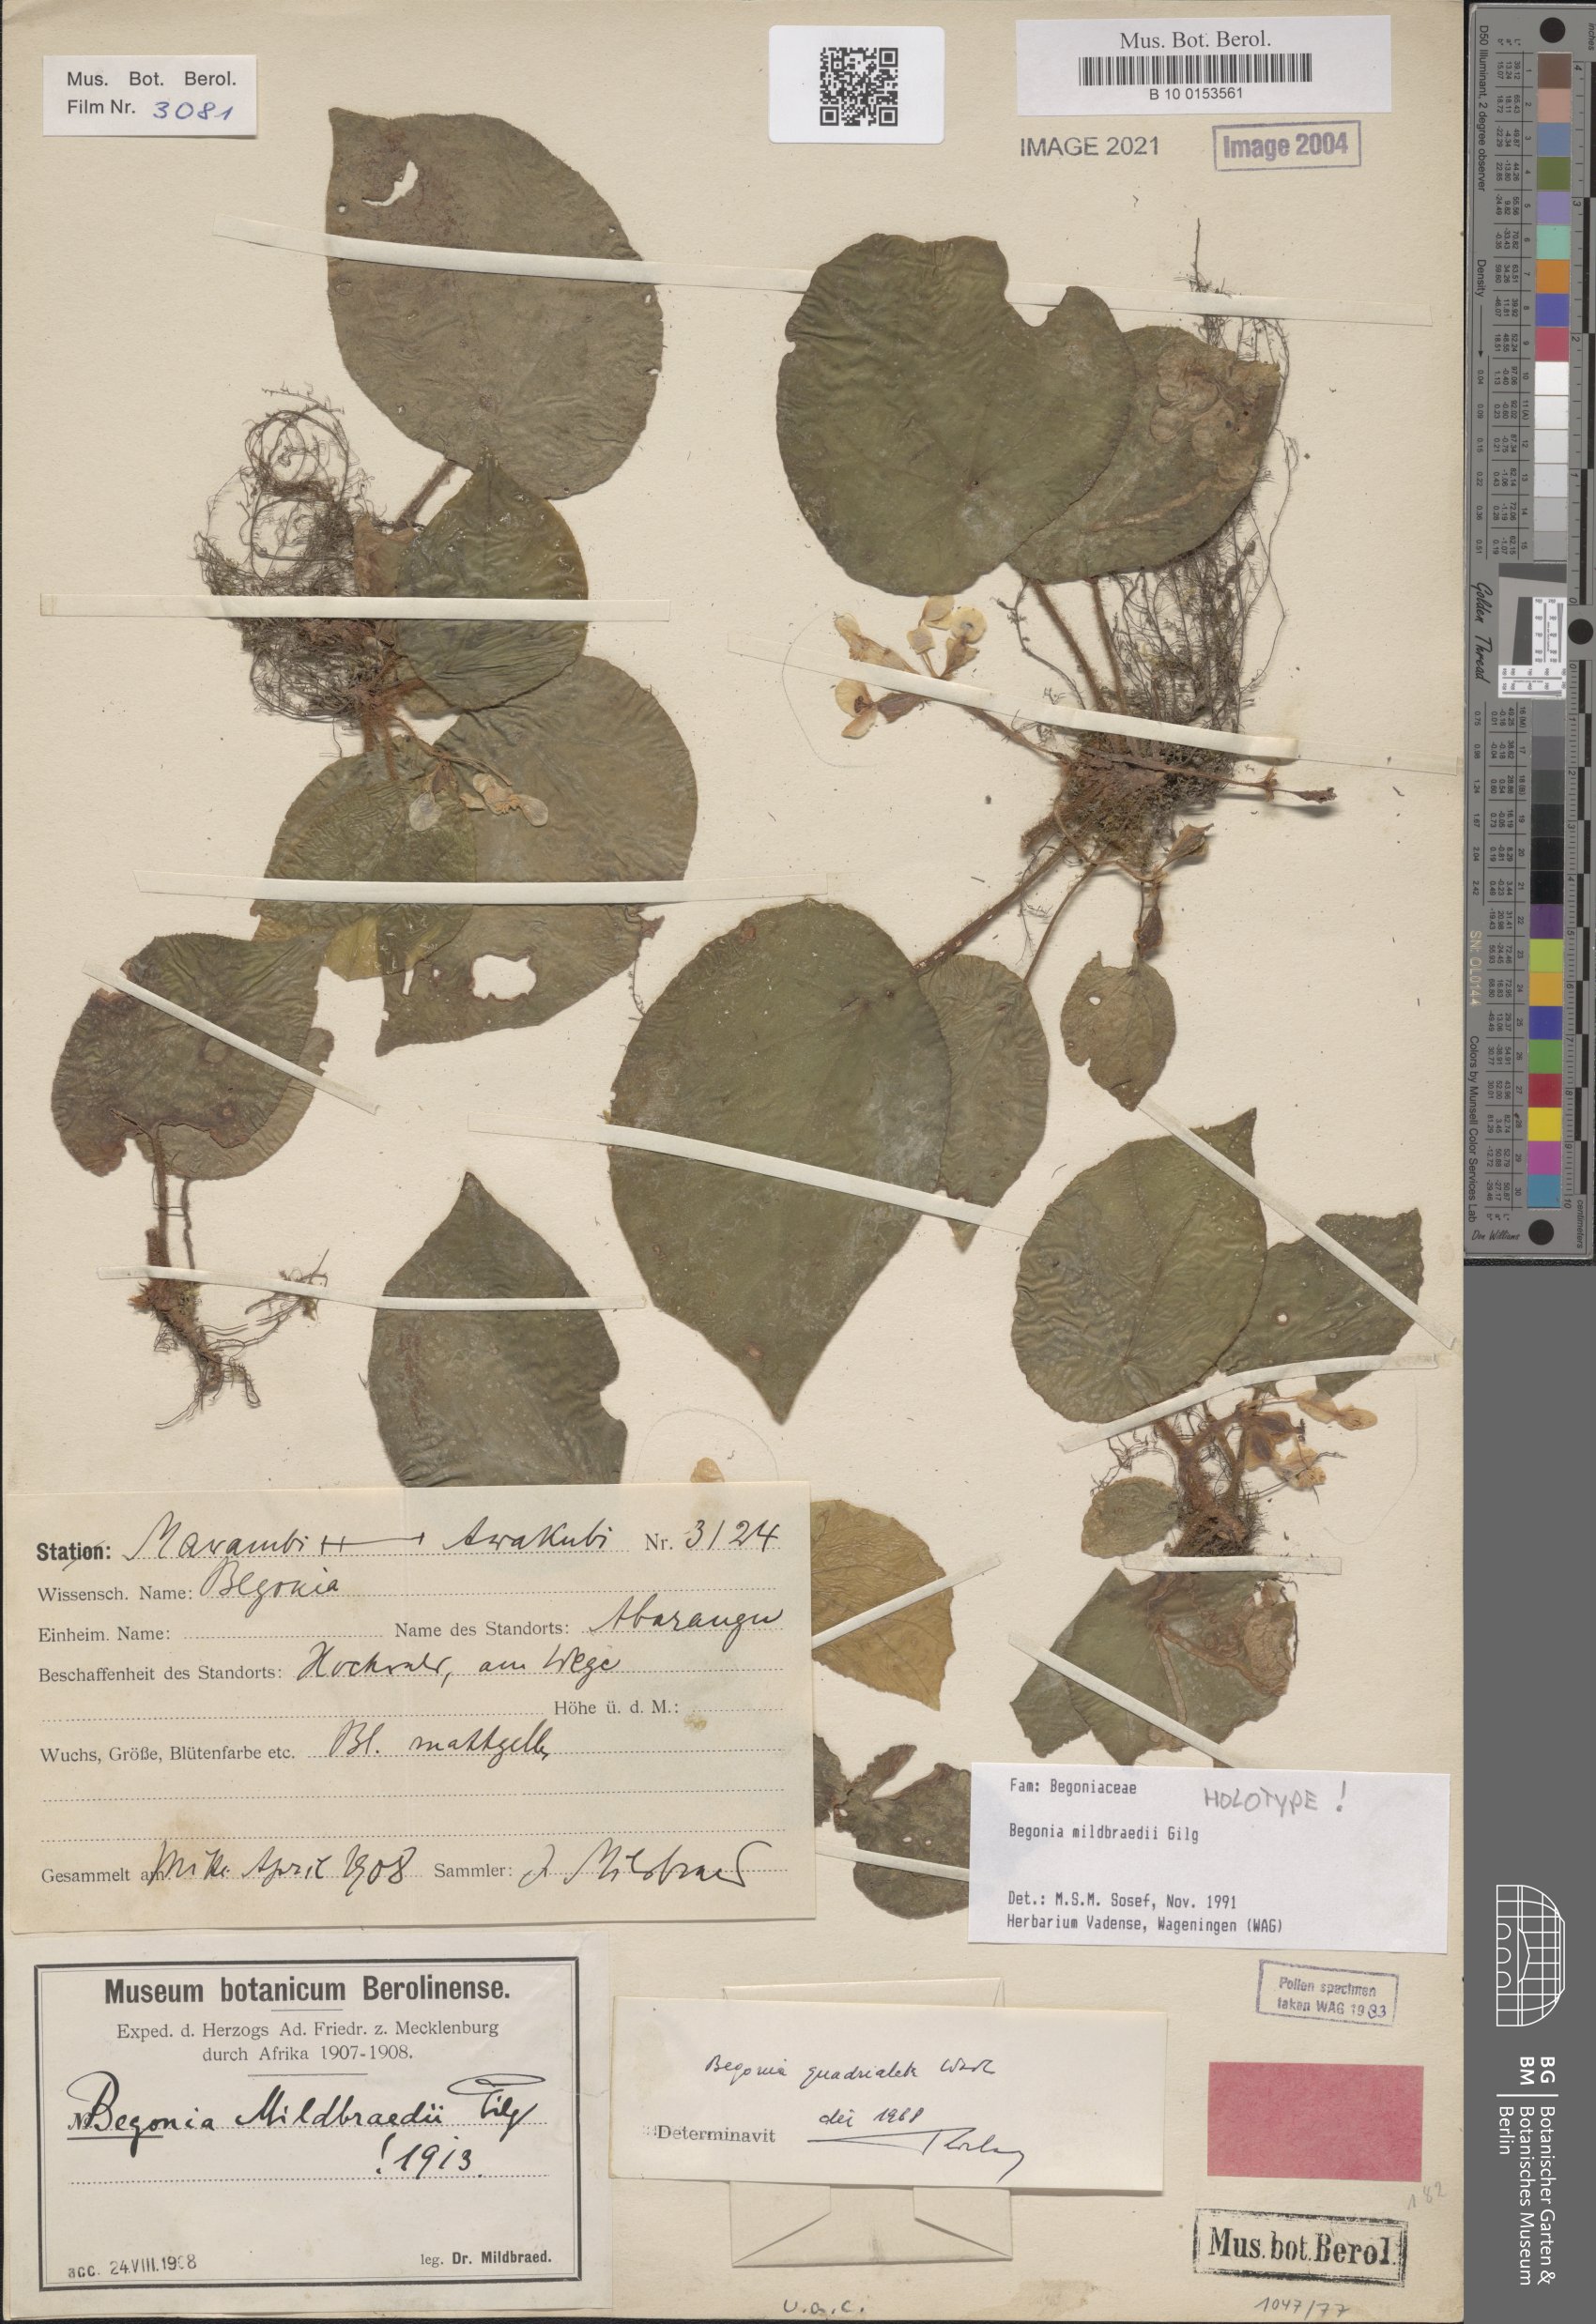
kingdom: Plantae
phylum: Tracheophyta
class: Magnoliopsida
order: Cucurbitales
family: Begoniaceae
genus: Begonia
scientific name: Begonia mildbraedii
